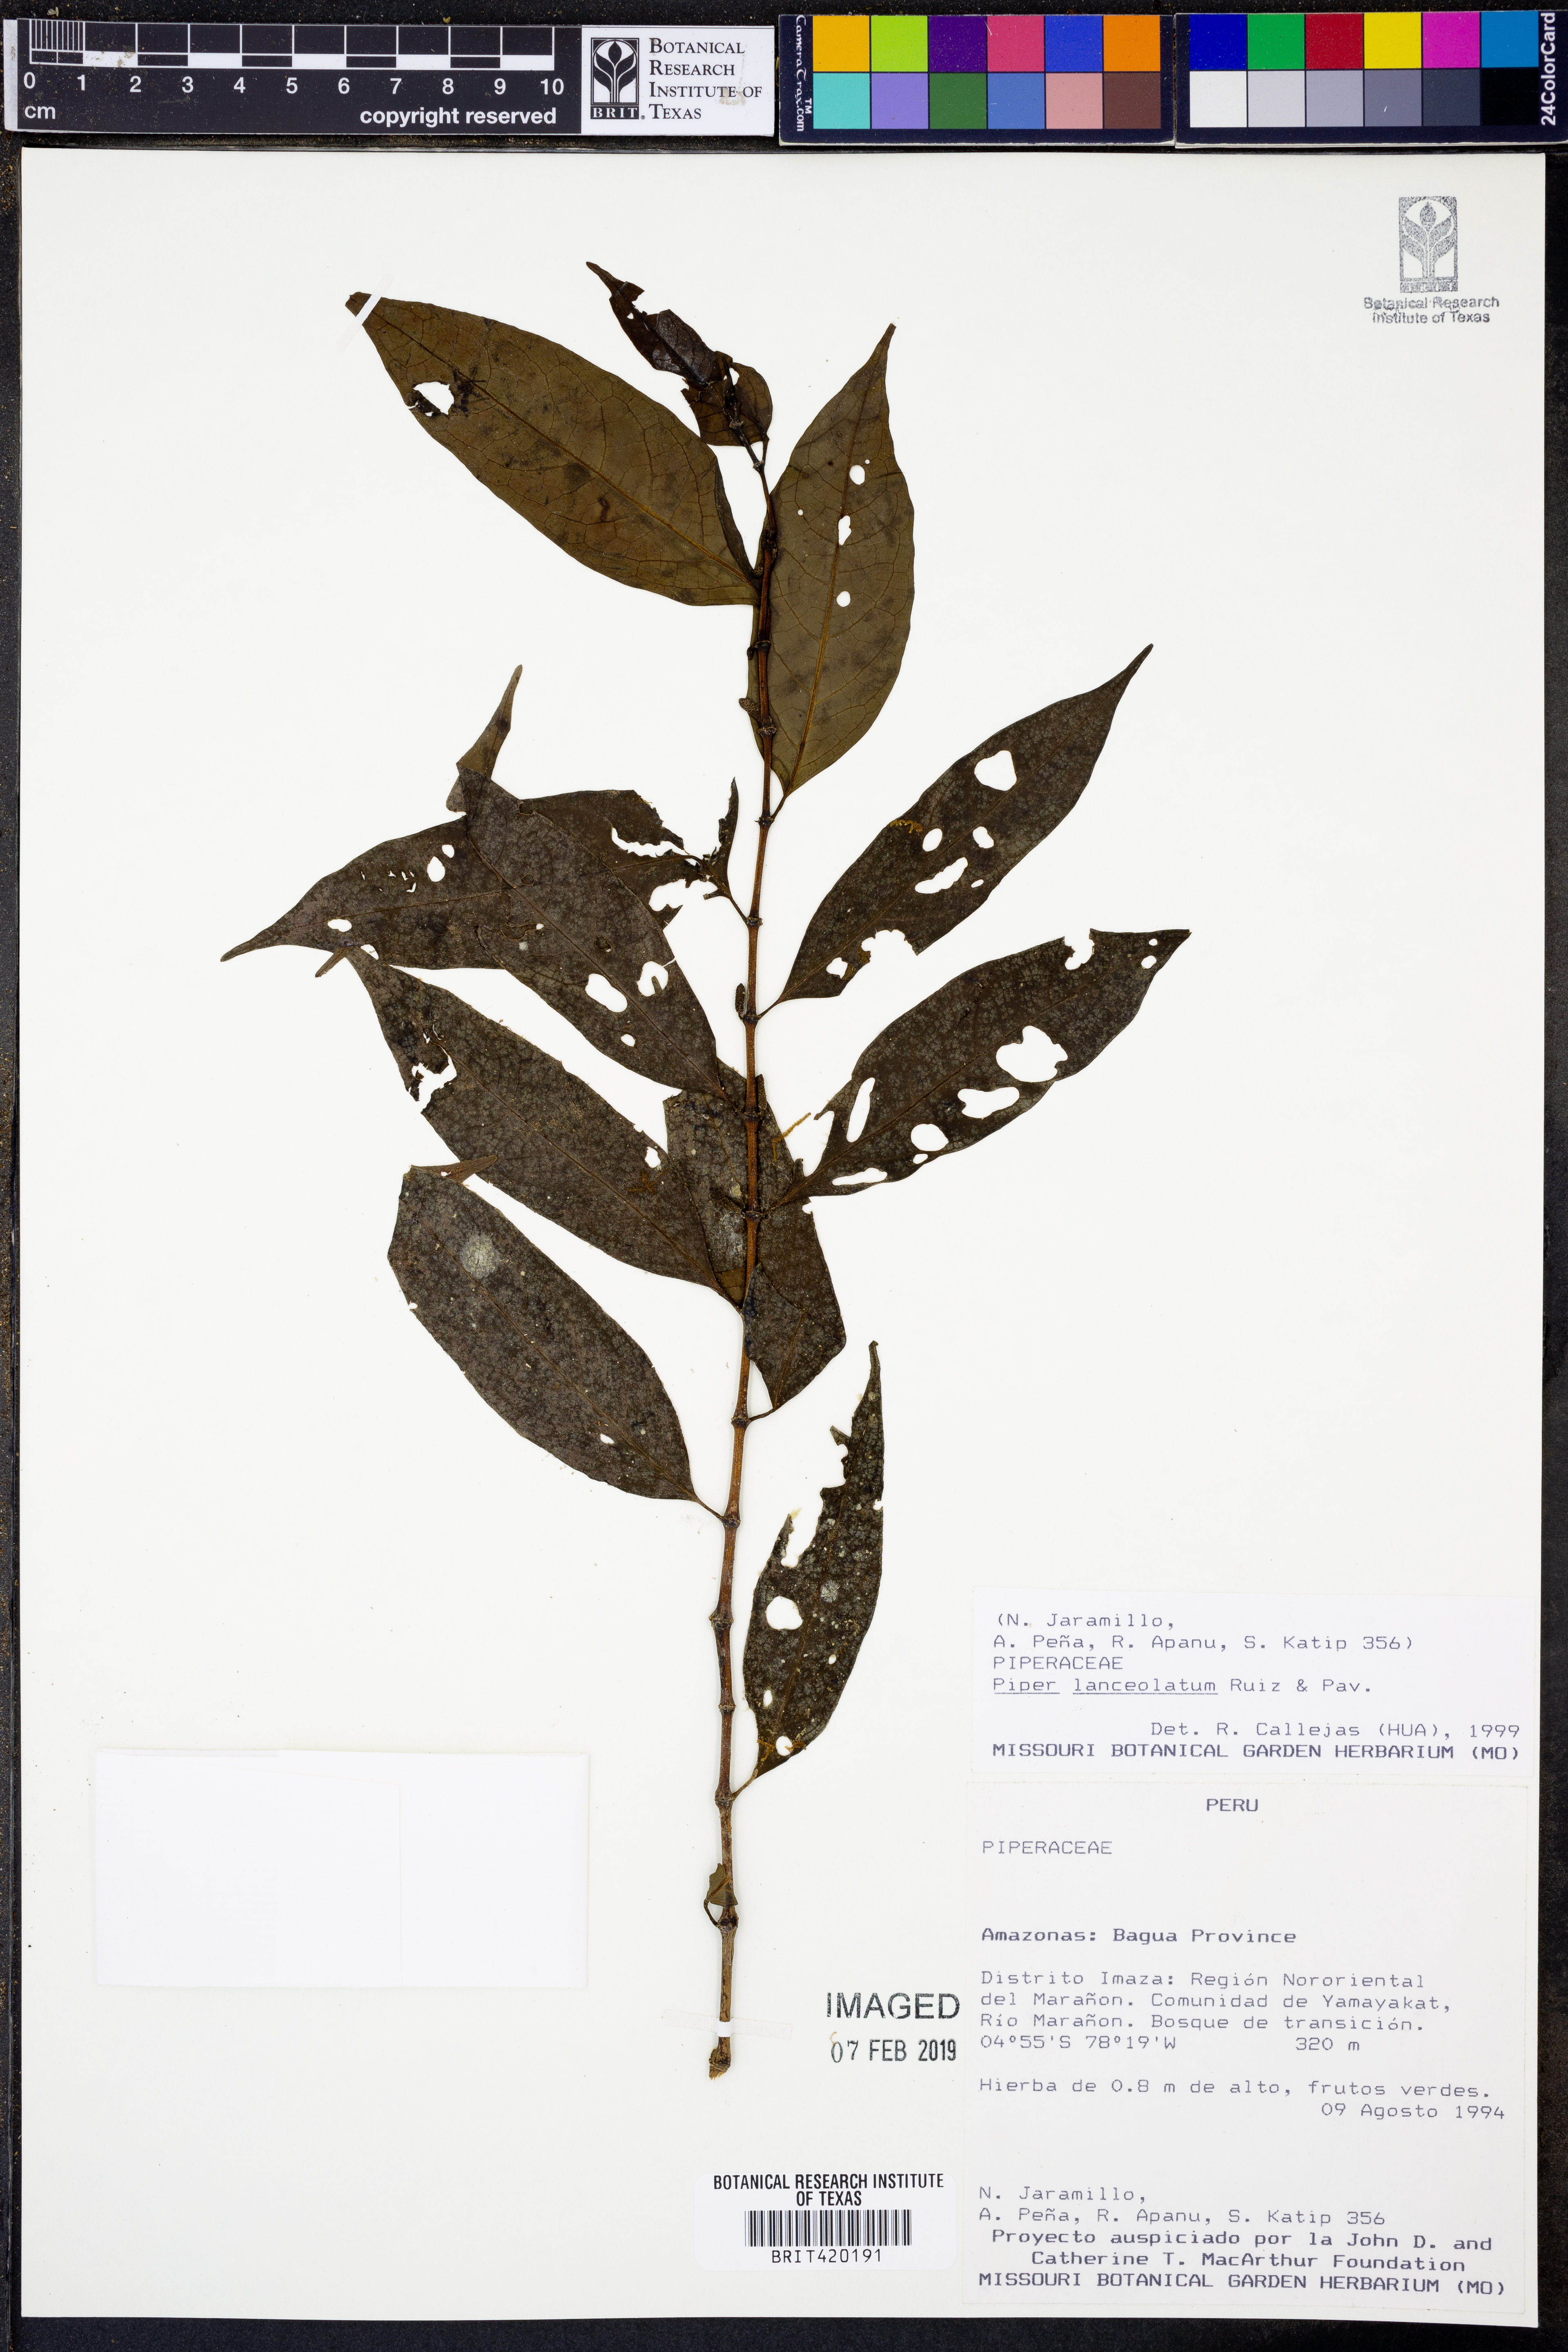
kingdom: Plantae
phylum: Tracheophyta
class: Magnoliopsida
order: Piperales
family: Piperaceae
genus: Piper
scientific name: Piper lanceolatum
